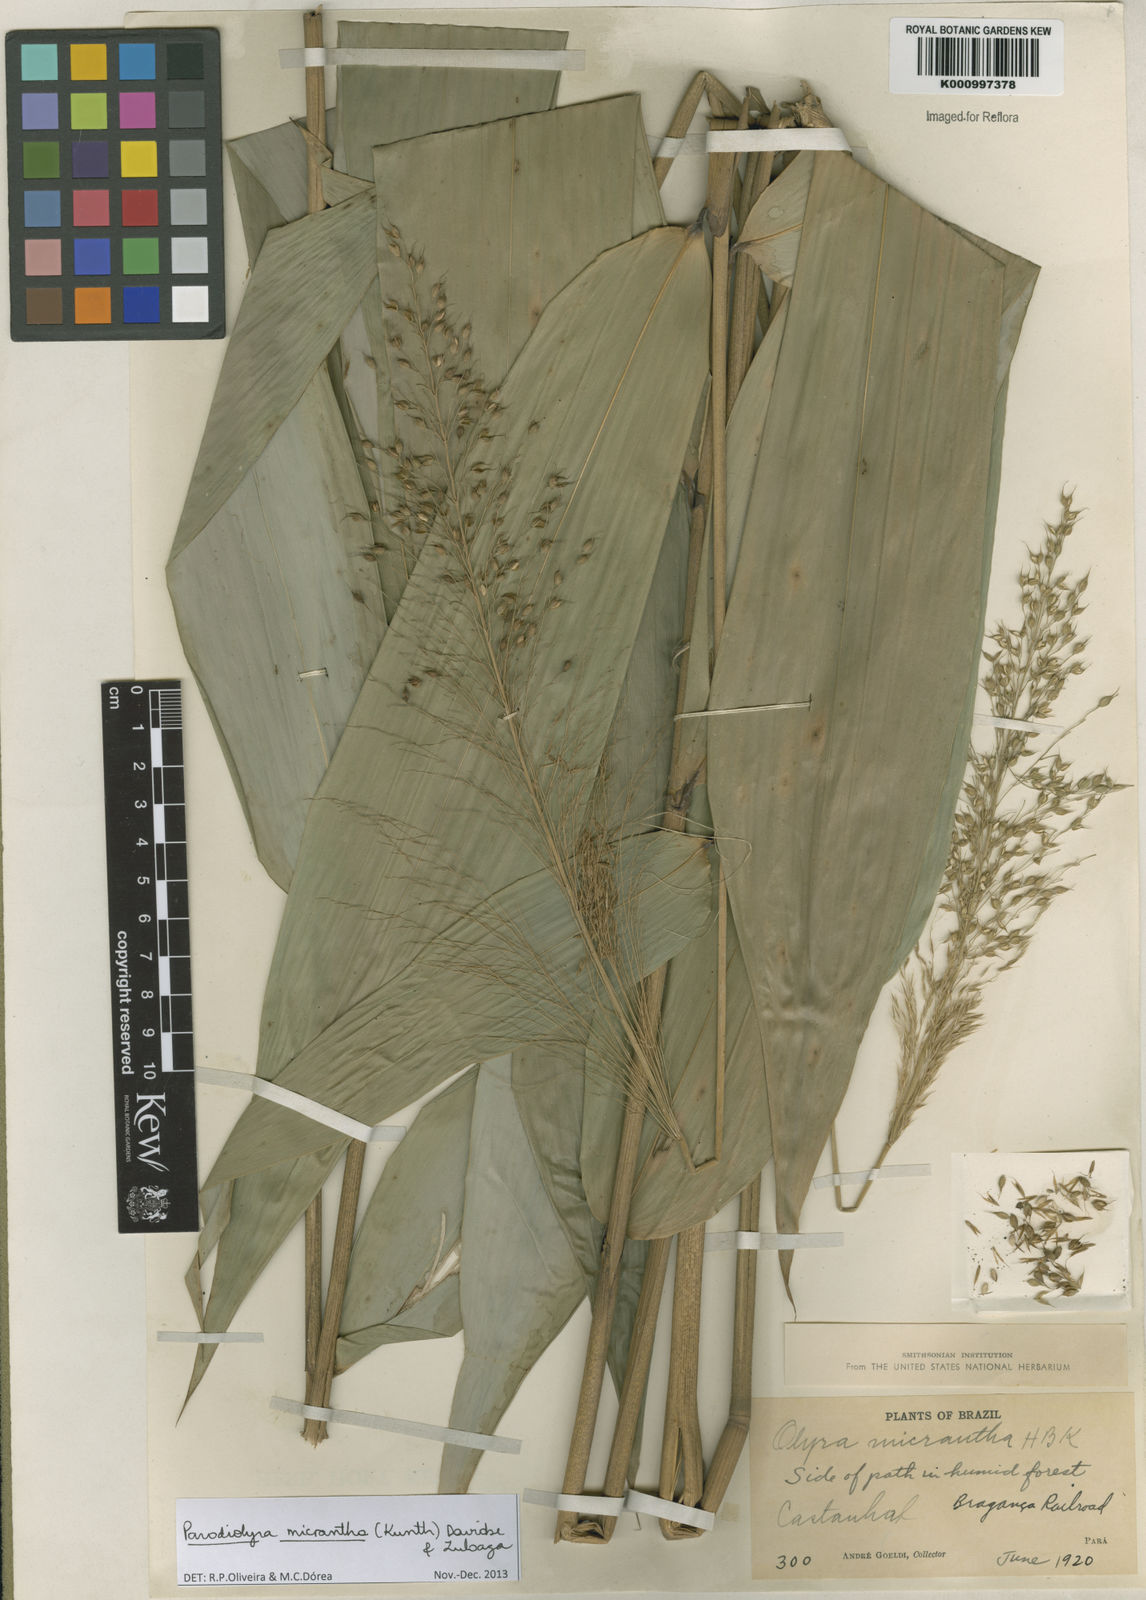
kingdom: Plantae
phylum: Tracheophyta
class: Liliopsida
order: Poales
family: Poaceae
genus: Taquara
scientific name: Taquara micrantha
